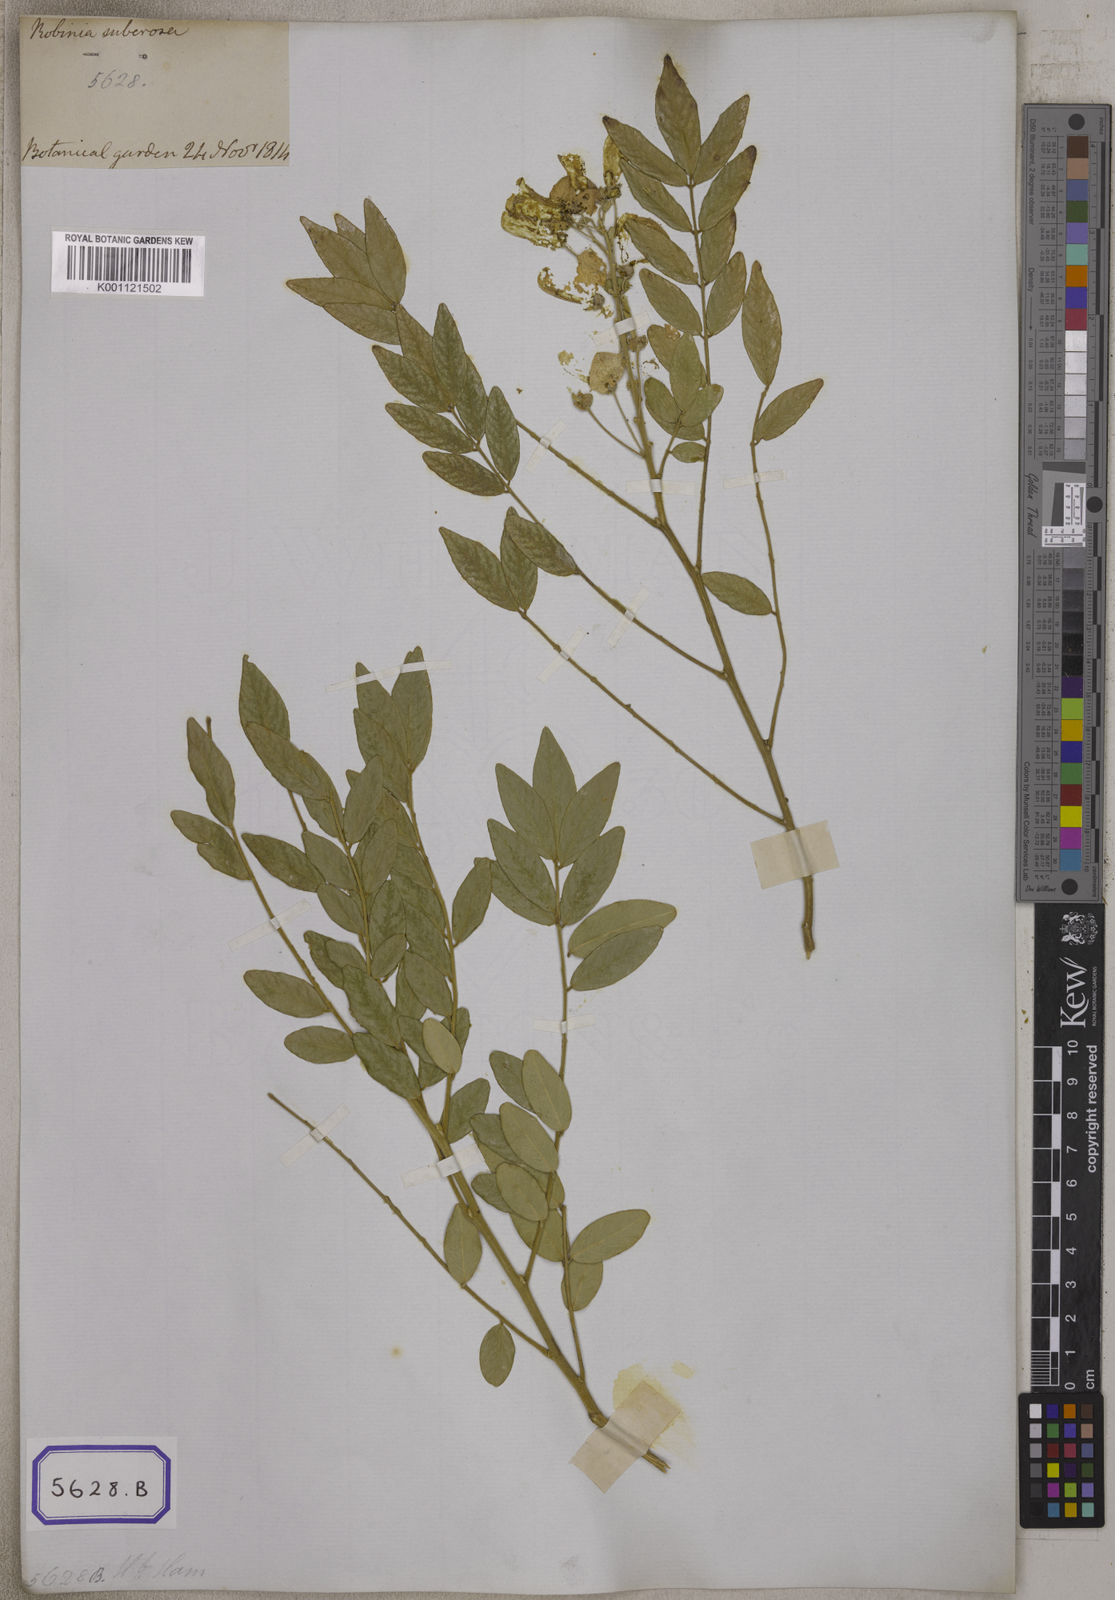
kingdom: Plantae
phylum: Tracheophyta
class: Magnoliopsida
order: Fabales
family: Fabaceae
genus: Mundulea
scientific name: Mundulea sericea
